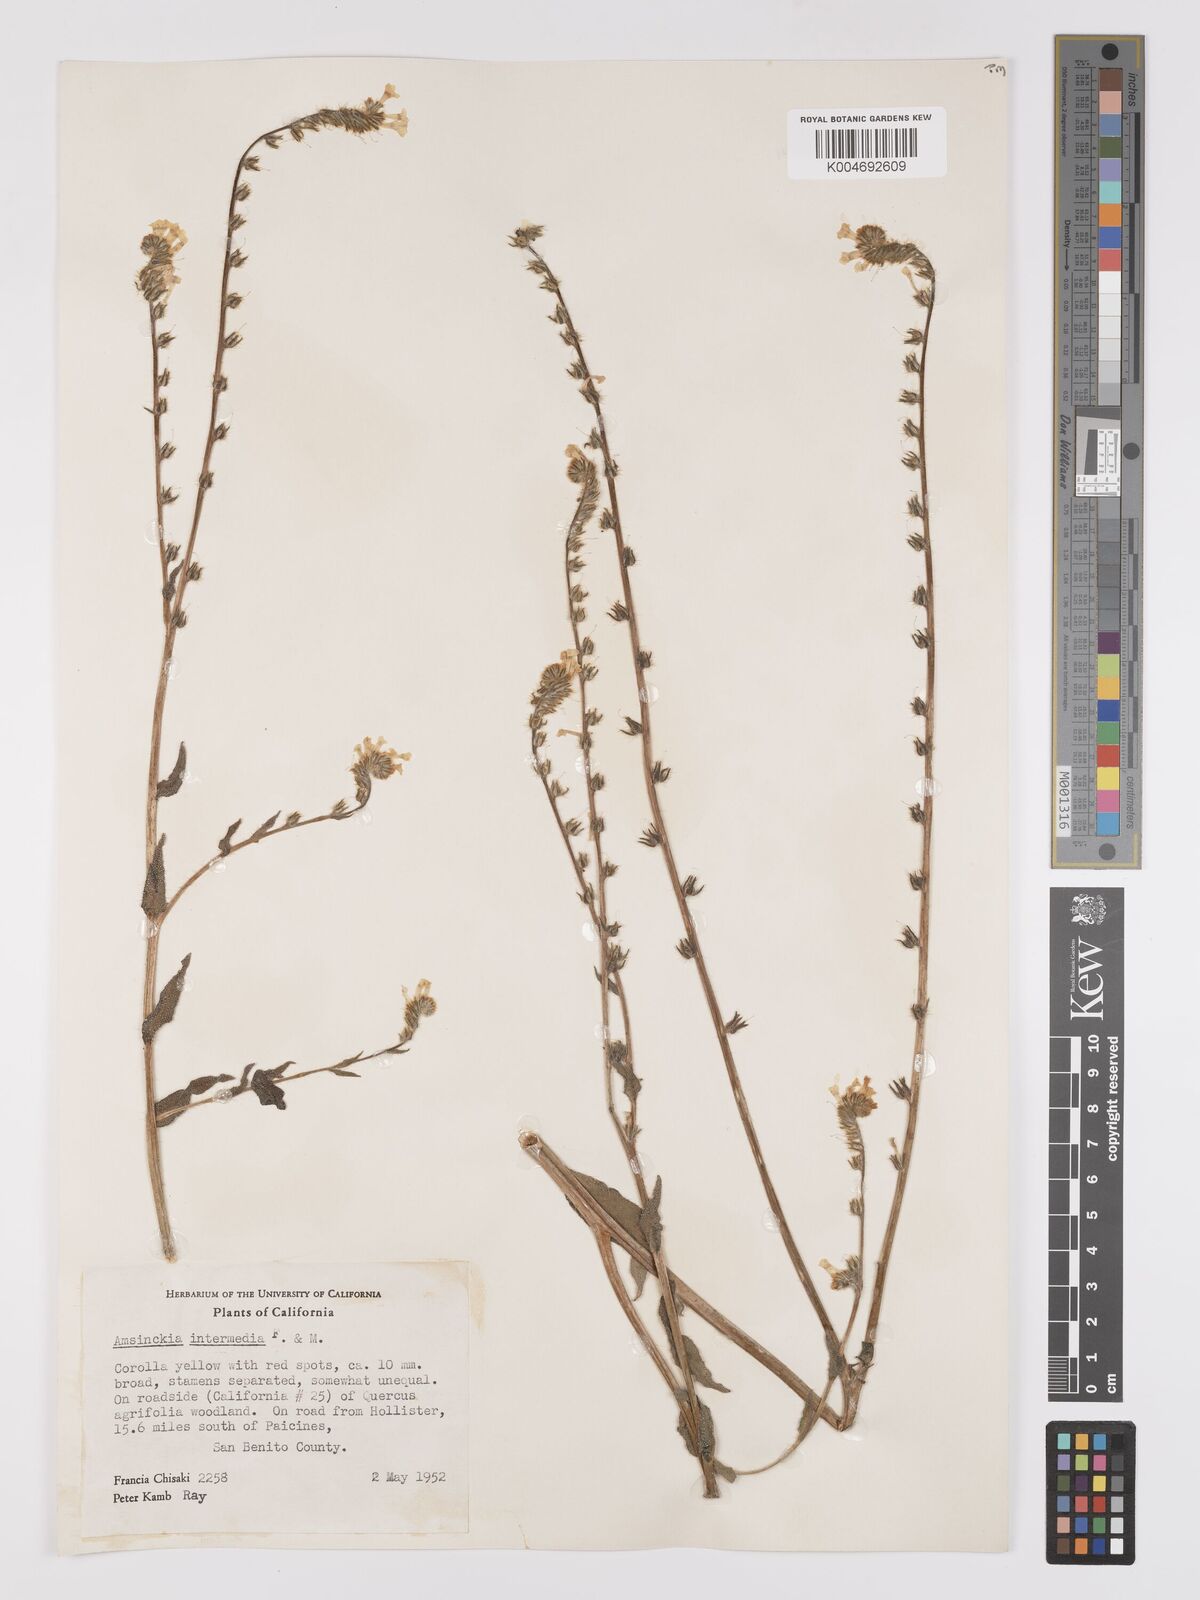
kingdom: Plantae
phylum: Tracheophyta
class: Magnoliopsida
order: Boraginales
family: Boraginaceae
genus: Amsinckia
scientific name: Amsinckia menziesii
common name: Menzies' fiddleneck
